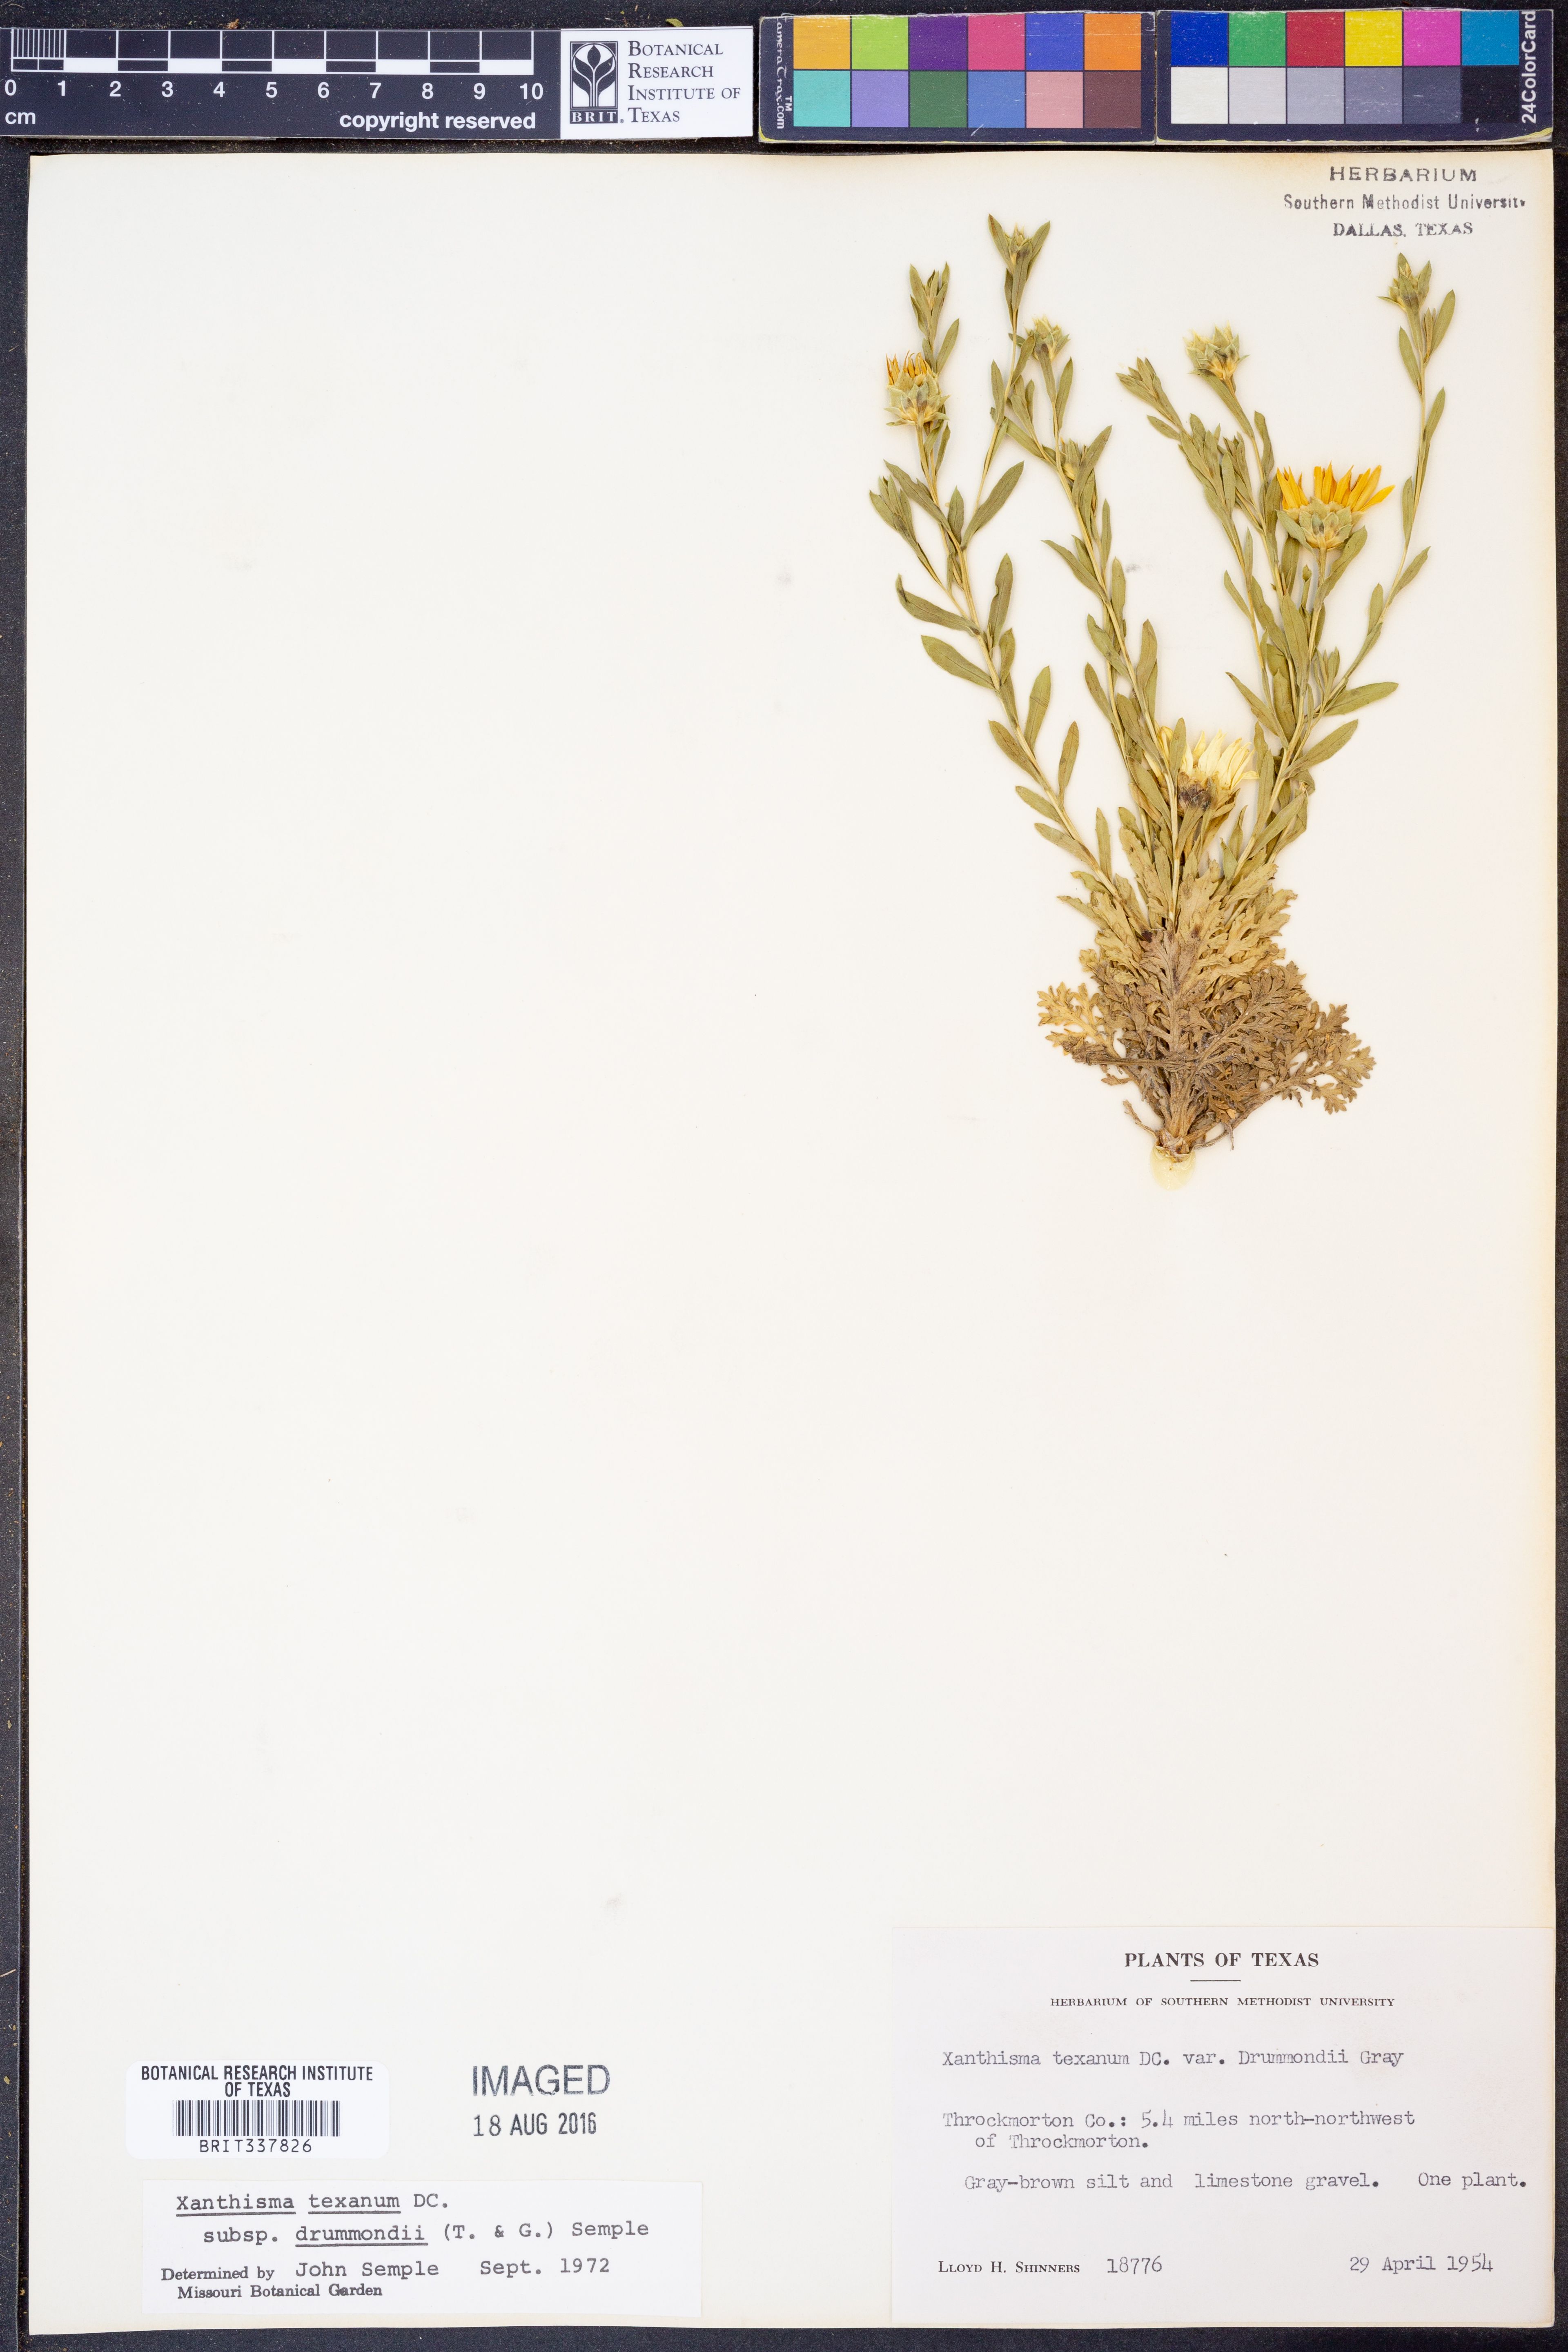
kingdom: Plantae
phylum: Tracheophyta
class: Magnoliopsida
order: Asterales
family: Asteraceae
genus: Xanthisma
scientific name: Xanthisma texanum
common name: Texas sleepy daisy
